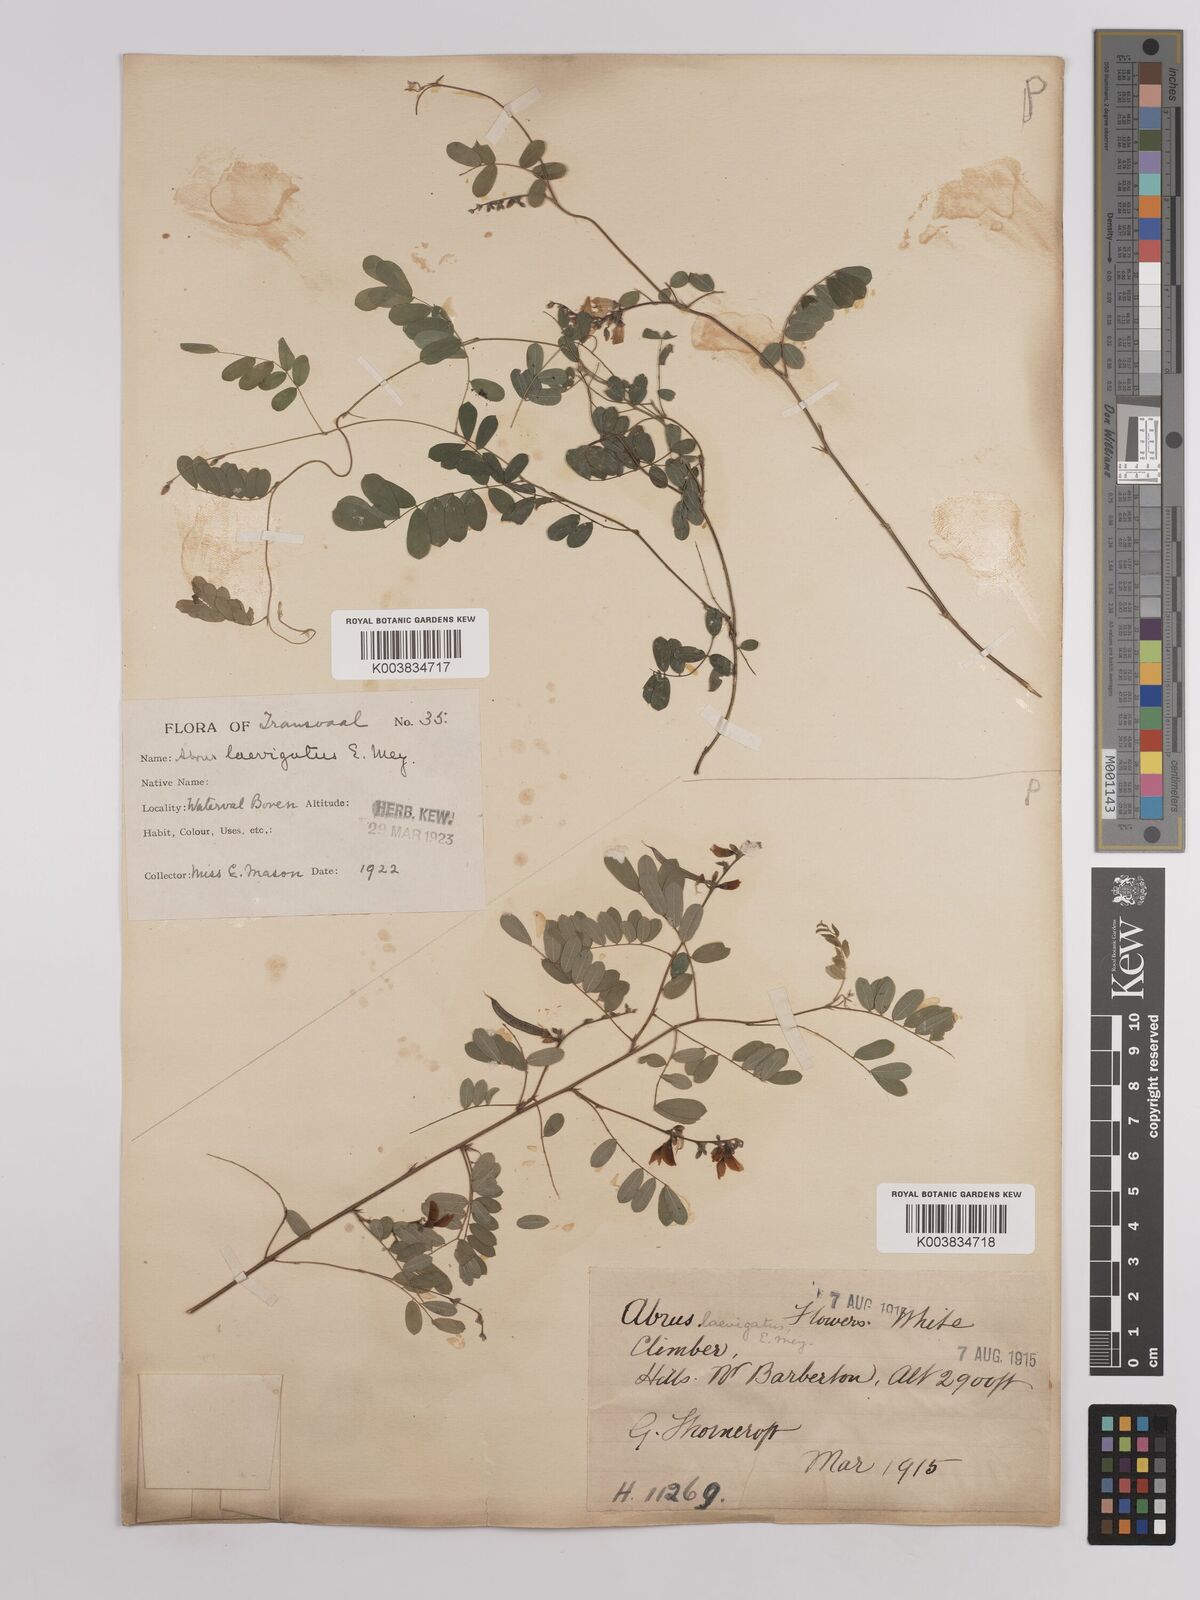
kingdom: Plantae
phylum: Tracheophyta
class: Magnoliopsida
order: Fabales
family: Fabaceae
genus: Abrus
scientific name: Abrus laevigatus
